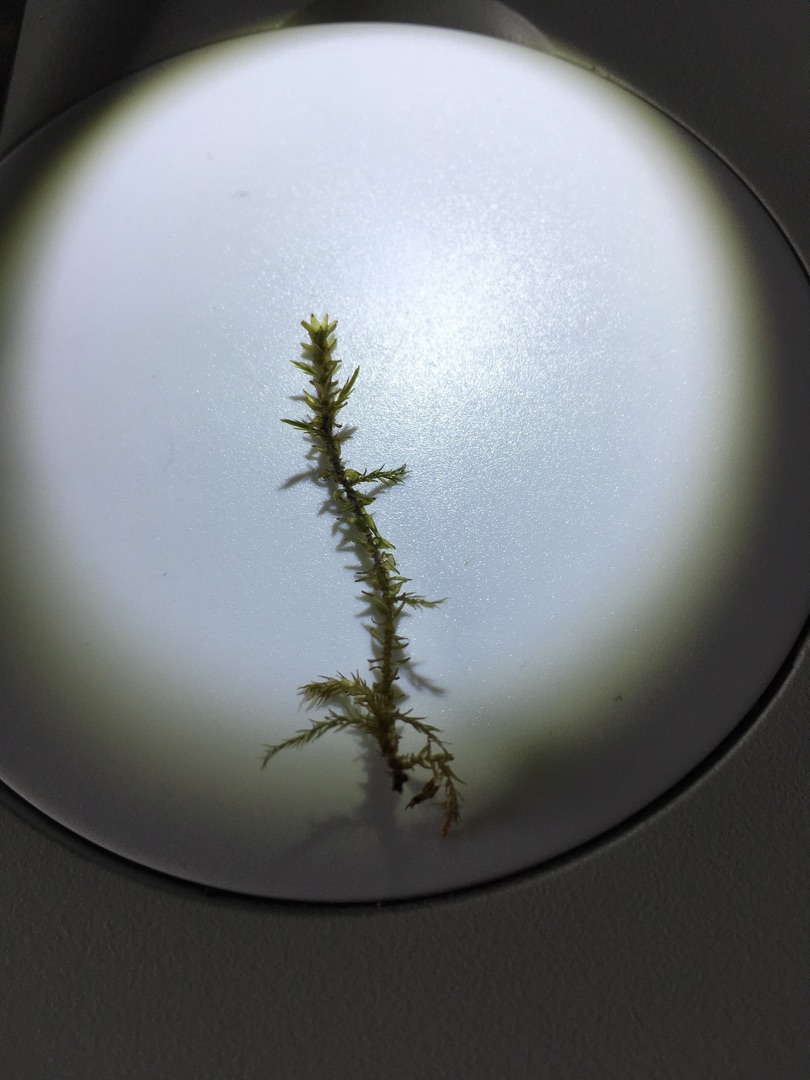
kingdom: Plantae
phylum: Bryophyta
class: Bryopsida
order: Hypnales
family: Calliergonaceae
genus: Calliergon
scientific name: Calliergon cordifolium
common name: Almindelig skebladsmos
